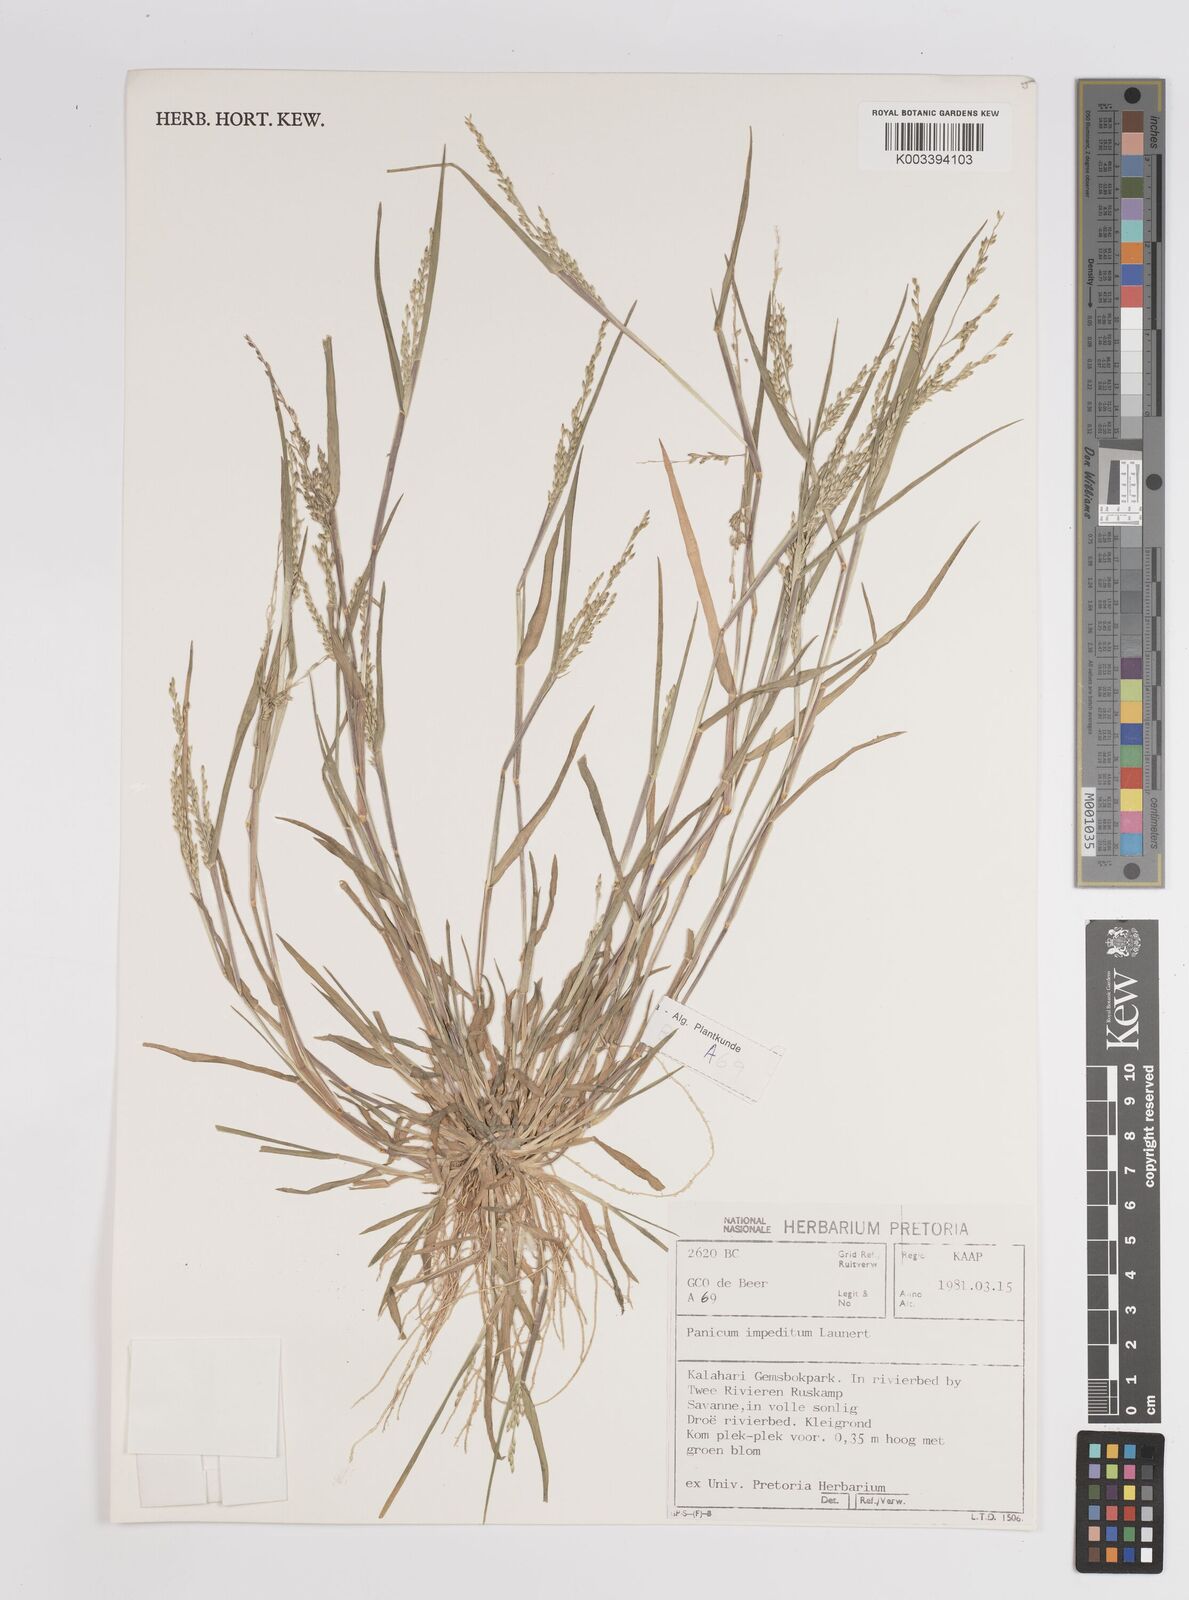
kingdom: Plantae
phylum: Tracheophyta
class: Liliopsida
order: Poales
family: Poaceae
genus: Panicum
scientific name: Panicum impeditum
